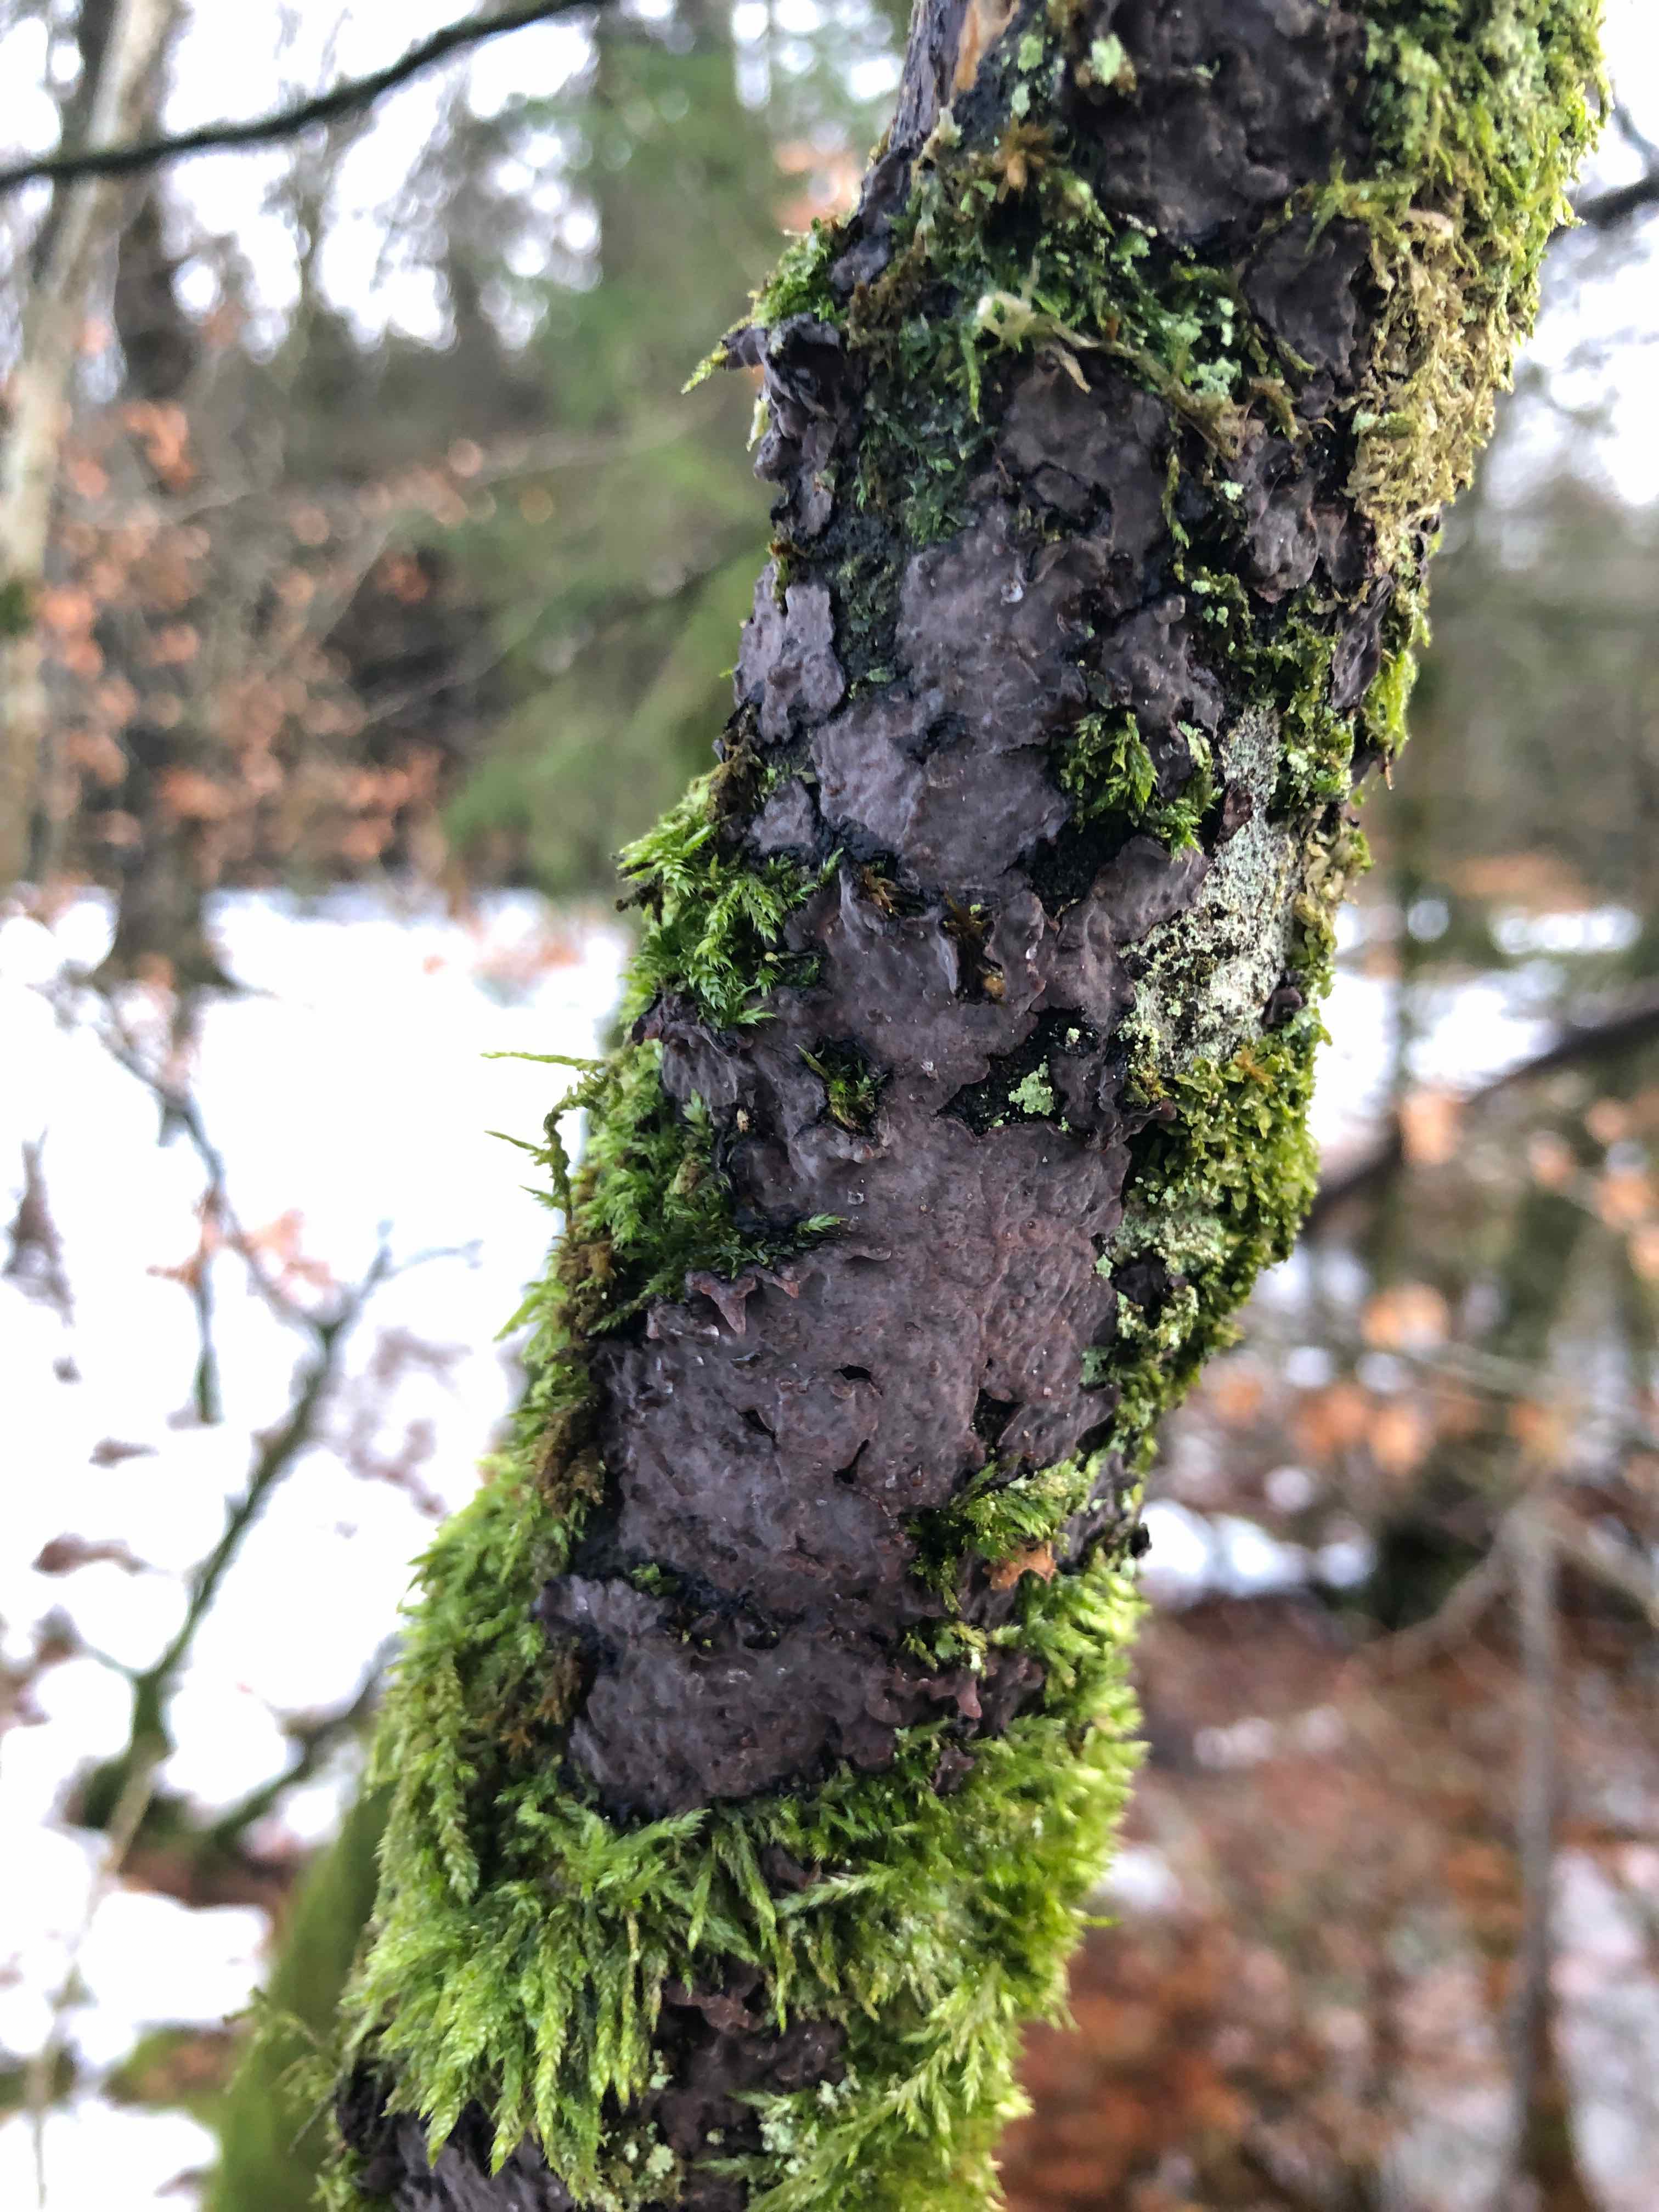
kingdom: Fungi
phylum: Basidiomycota
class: Agaricomycetes
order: Russulales
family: Peniophoraceae
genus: Peniophora
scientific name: Peniophora quercina
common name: ege-voksskind
